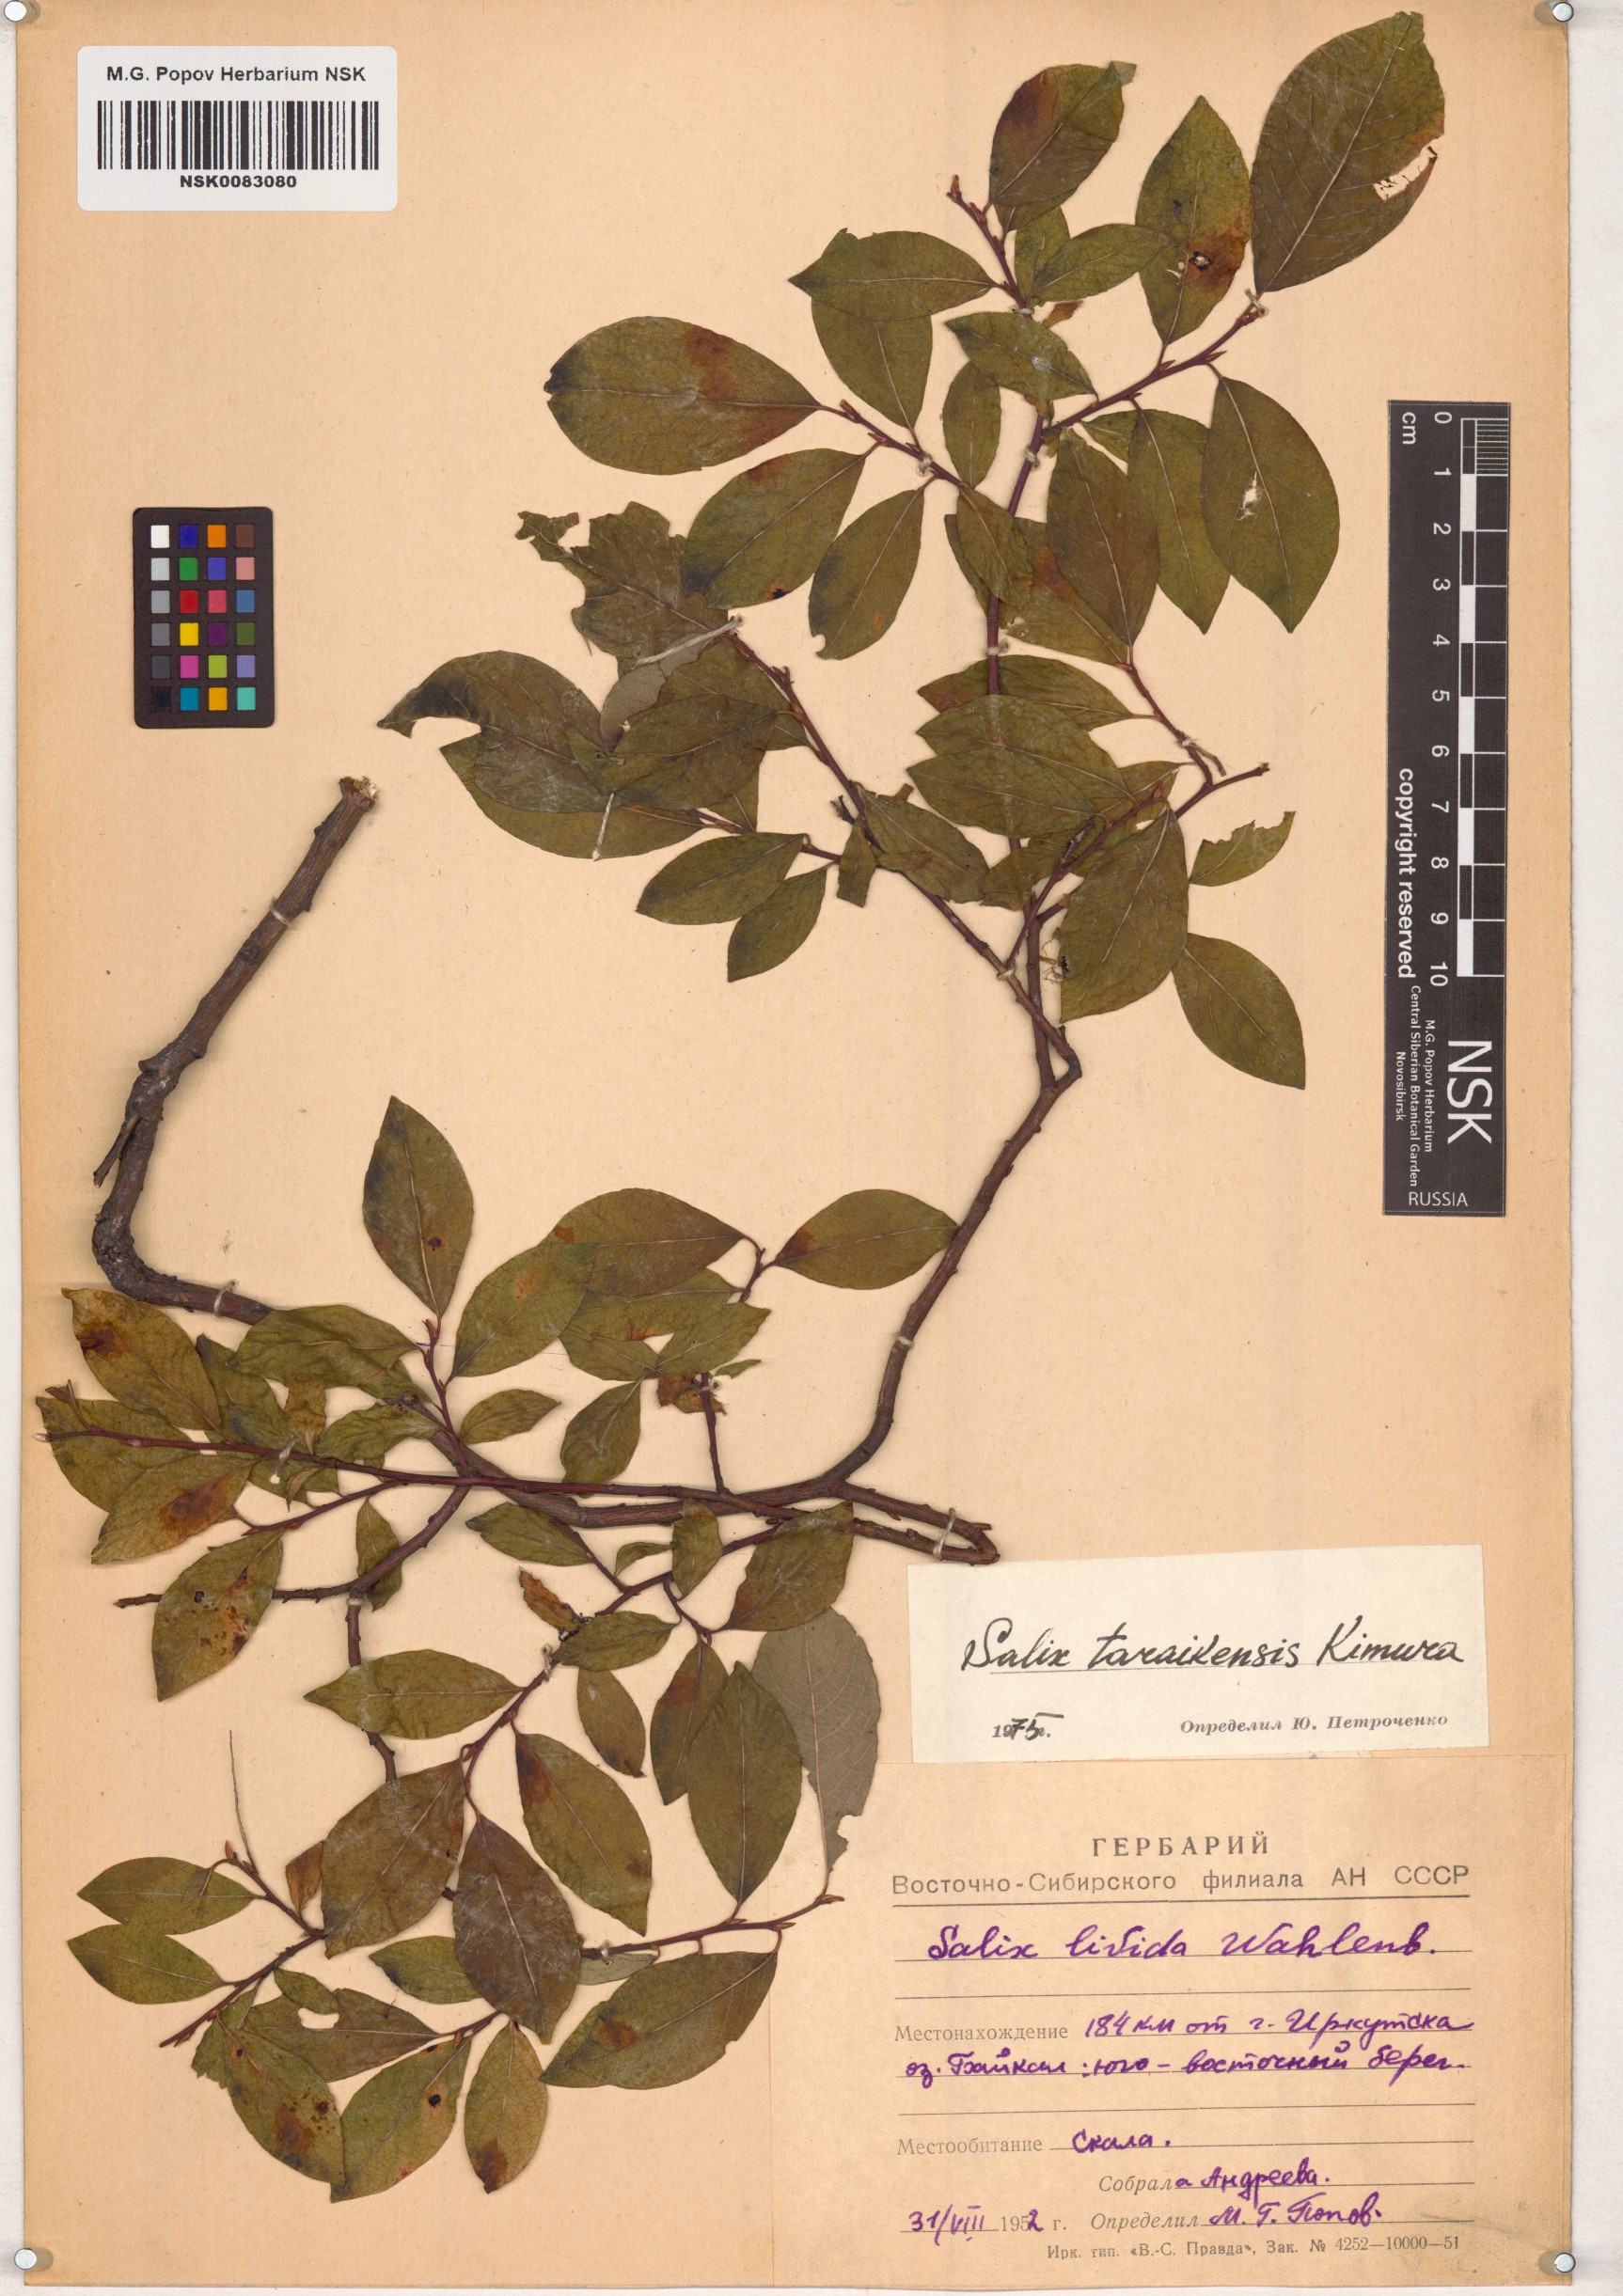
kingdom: Plantae
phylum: Tracheophyta
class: Magnoliopsida
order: Malpighiales
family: Salicaceae
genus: Salix
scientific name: Salix taraikensis
